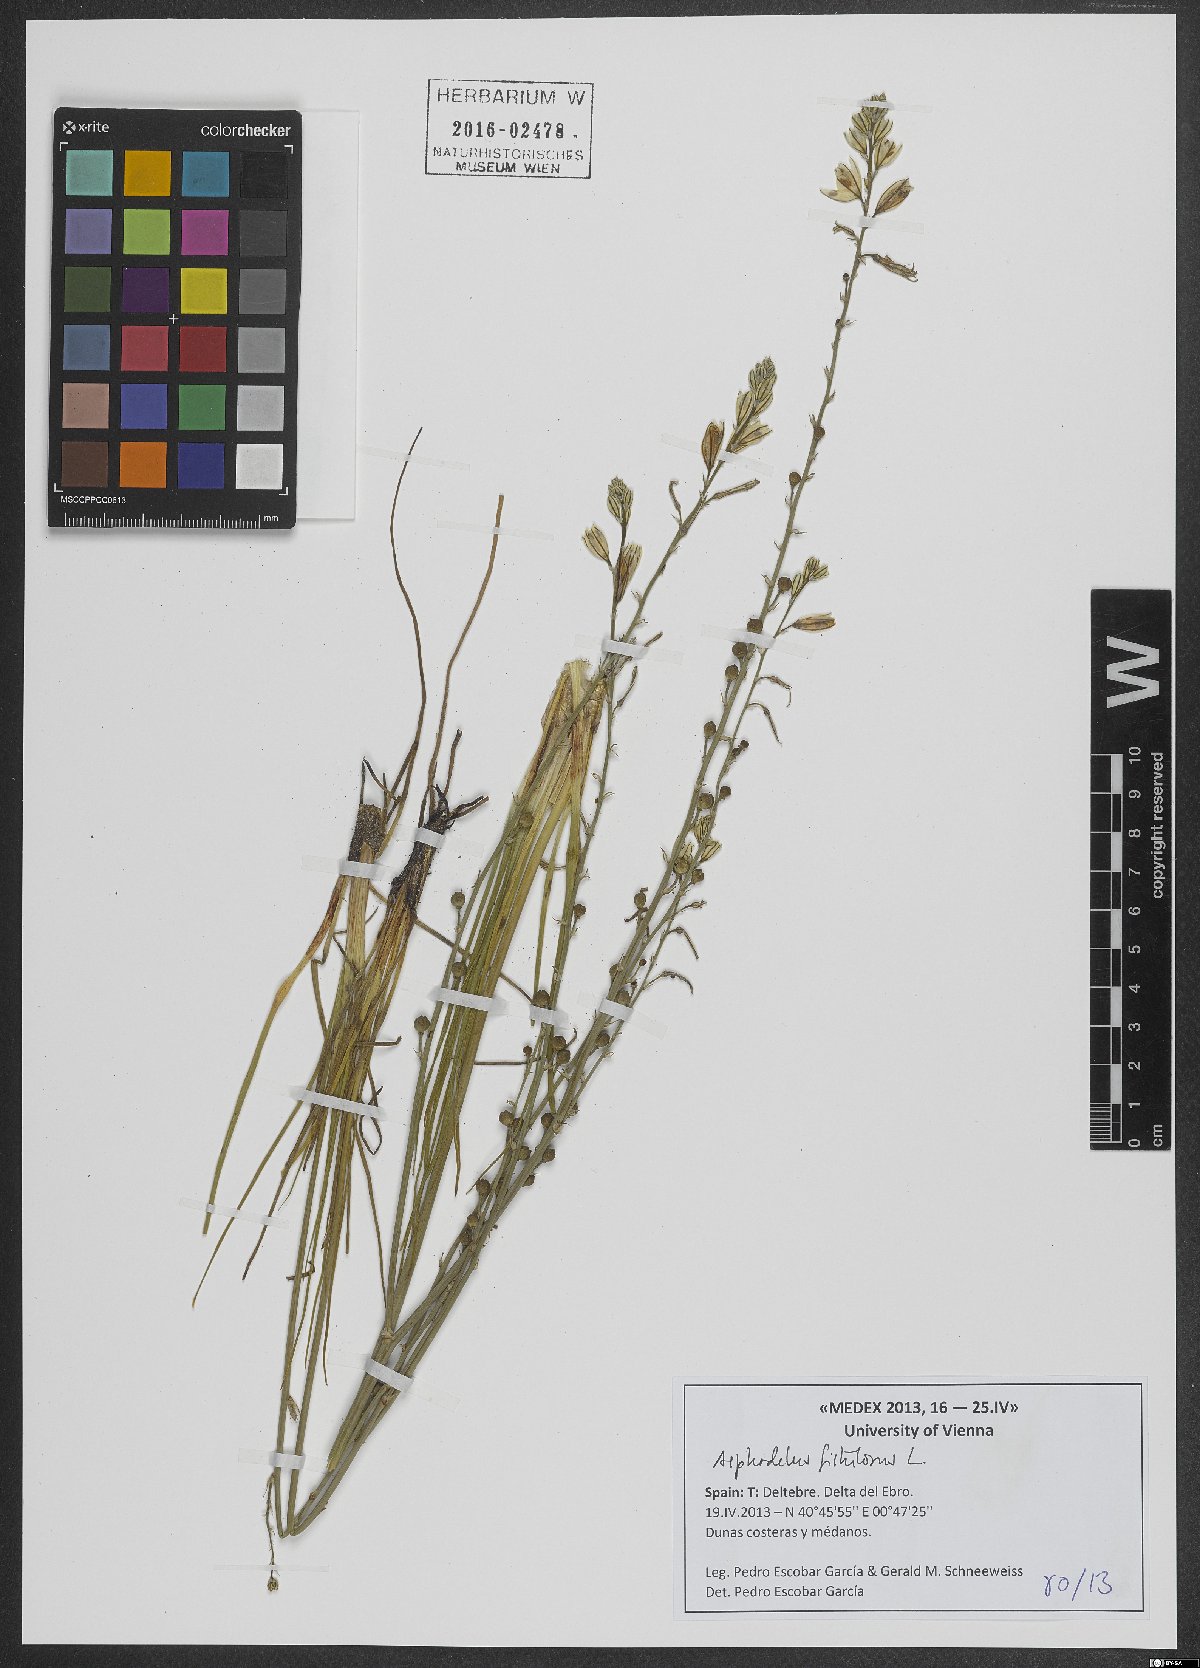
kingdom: Plantae
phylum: Tracheophyta
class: Liliopsida
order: Asparagales
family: Asphodelaceae
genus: Asphodelus
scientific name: Asphodelus fistulosus
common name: Onionweed
